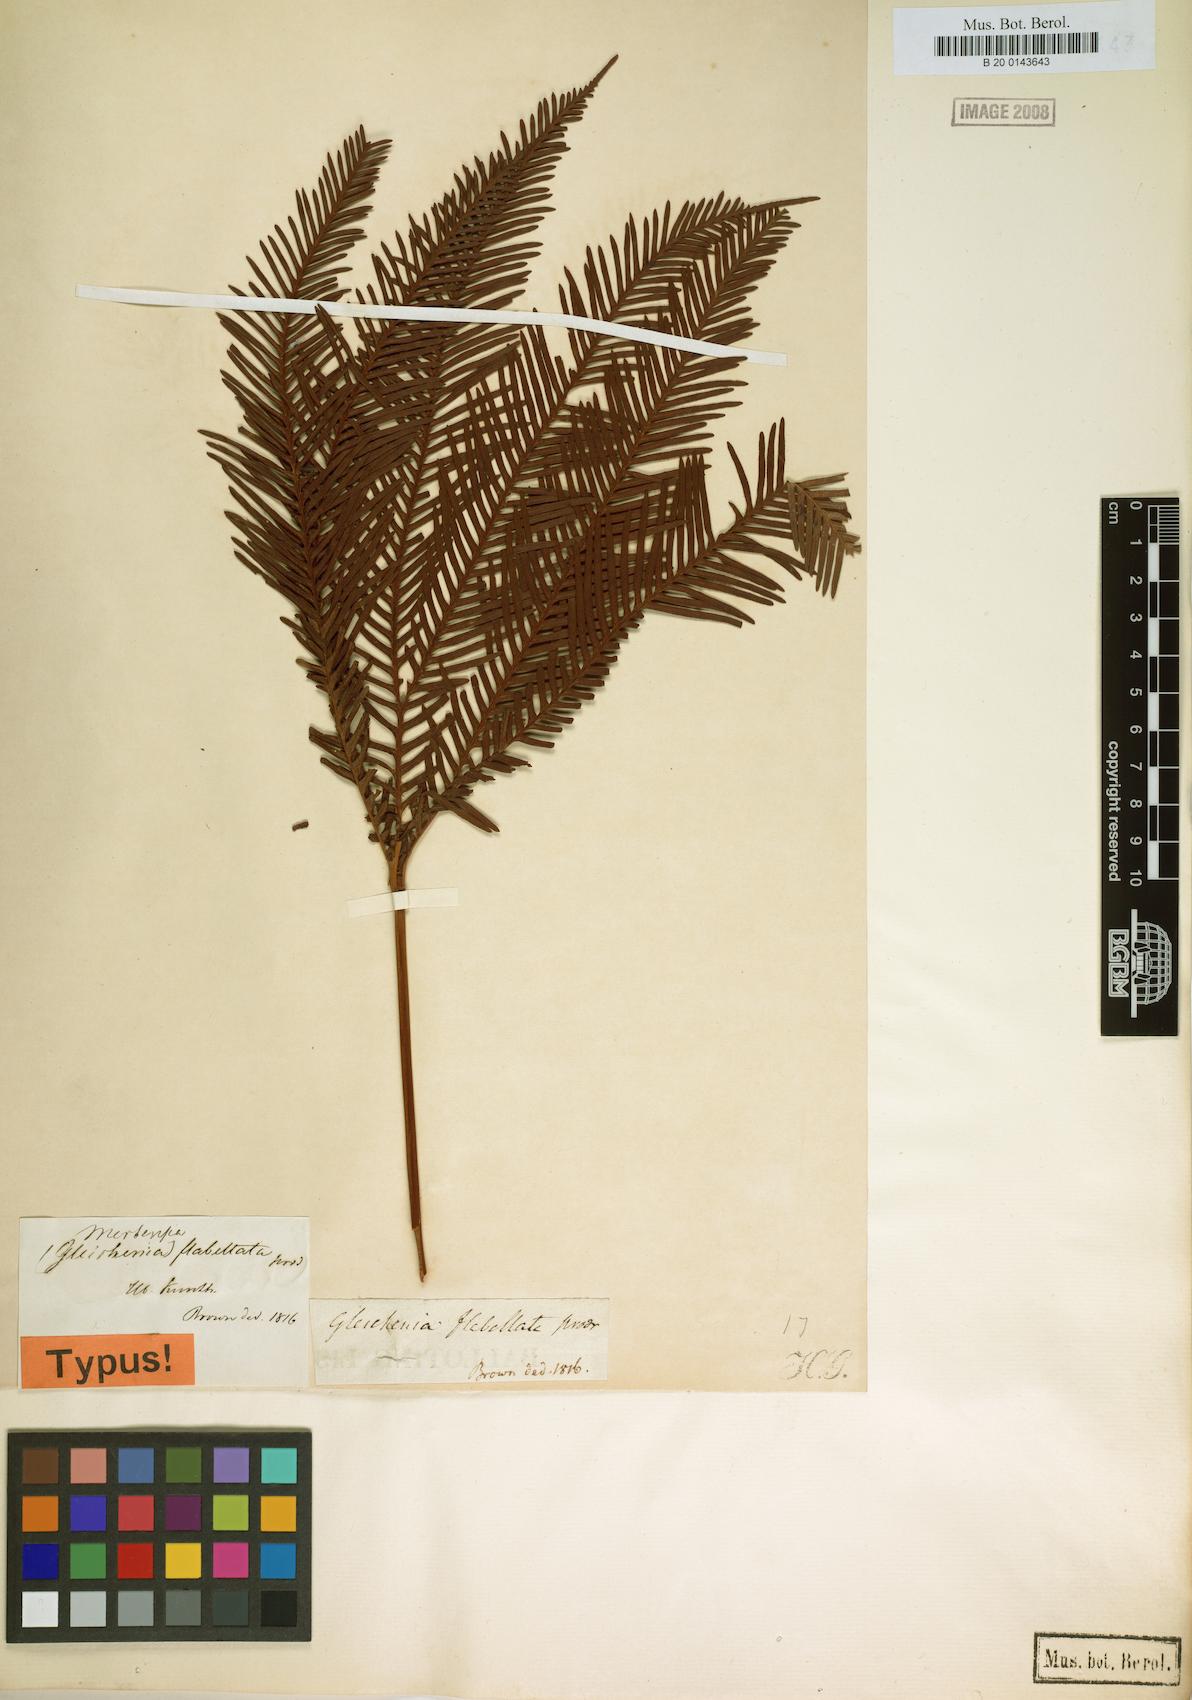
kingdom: Plantae
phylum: Tracheophyta
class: Polypodiopsida
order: Gleicheniales
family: Gleicheniaceae
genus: Sticherus
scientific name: Sticherus flabellatus
